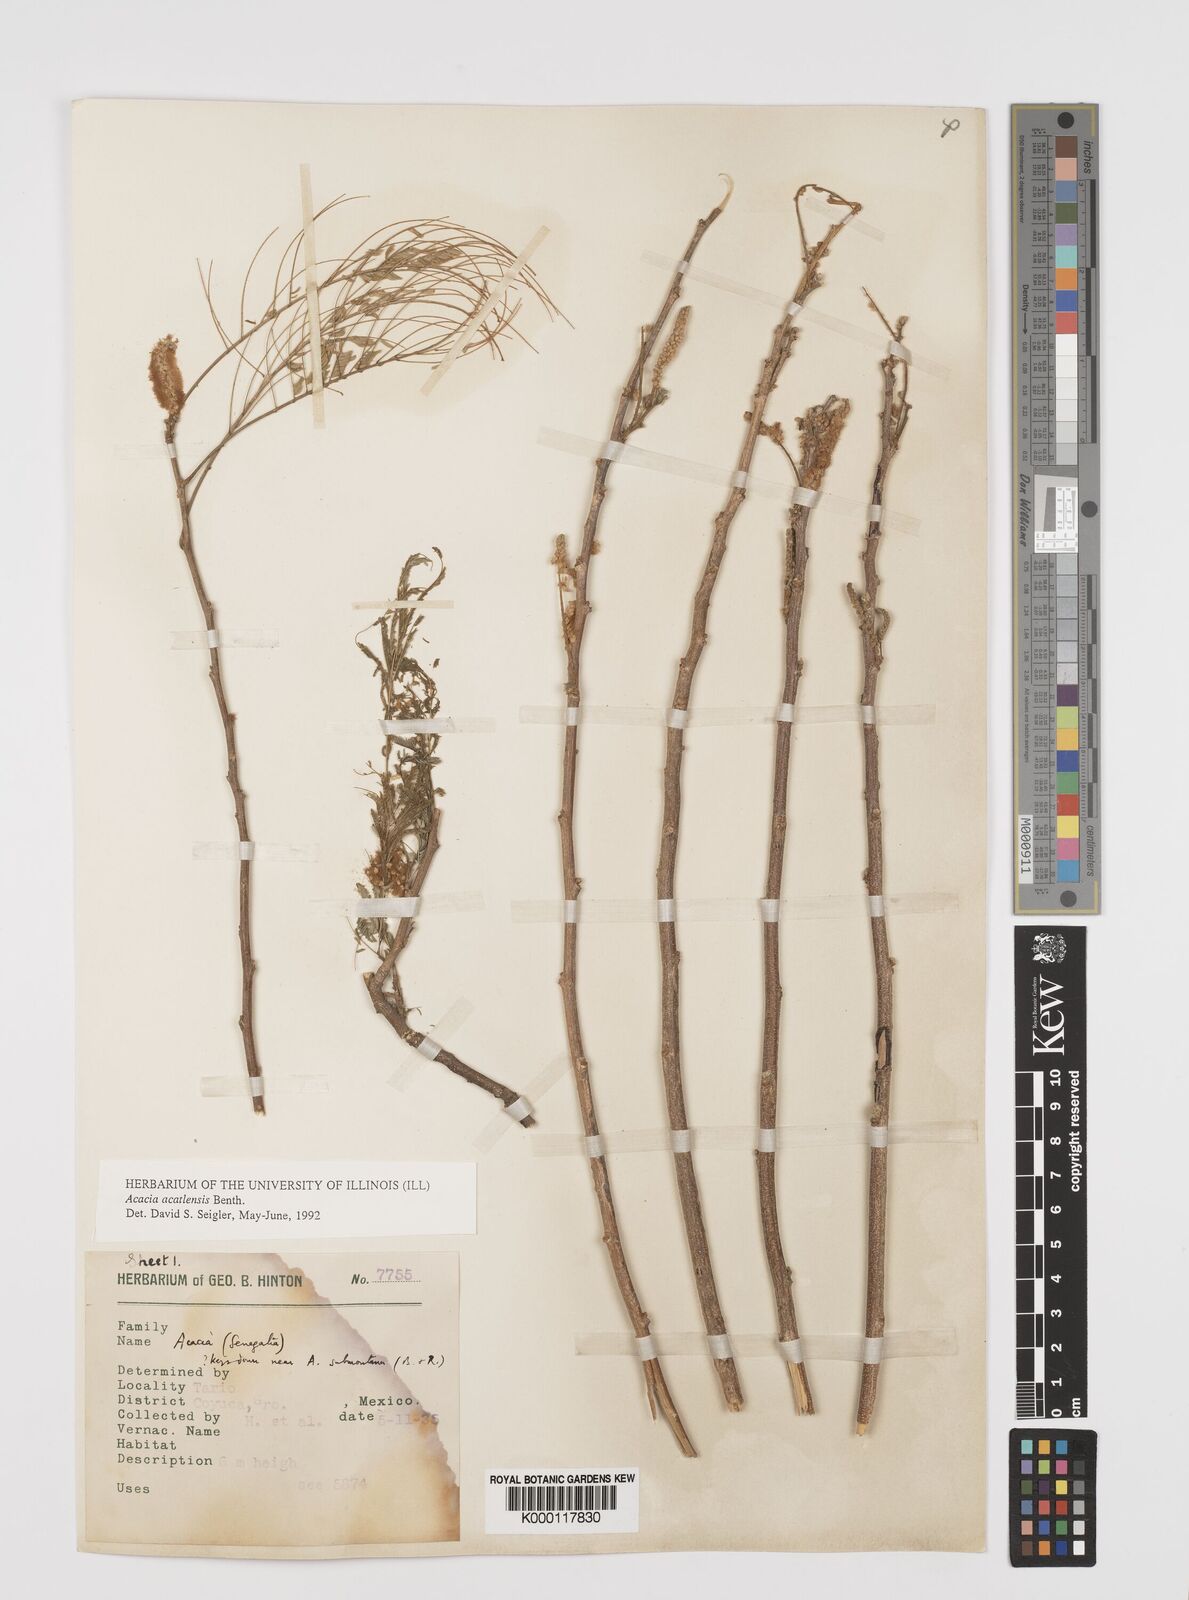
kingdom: Plantae
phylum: Tracheophyta
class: Magnoliopsida
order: Fabales
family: Fabaceae
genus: Mariosousa
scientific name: Mariosousa acatlensis
